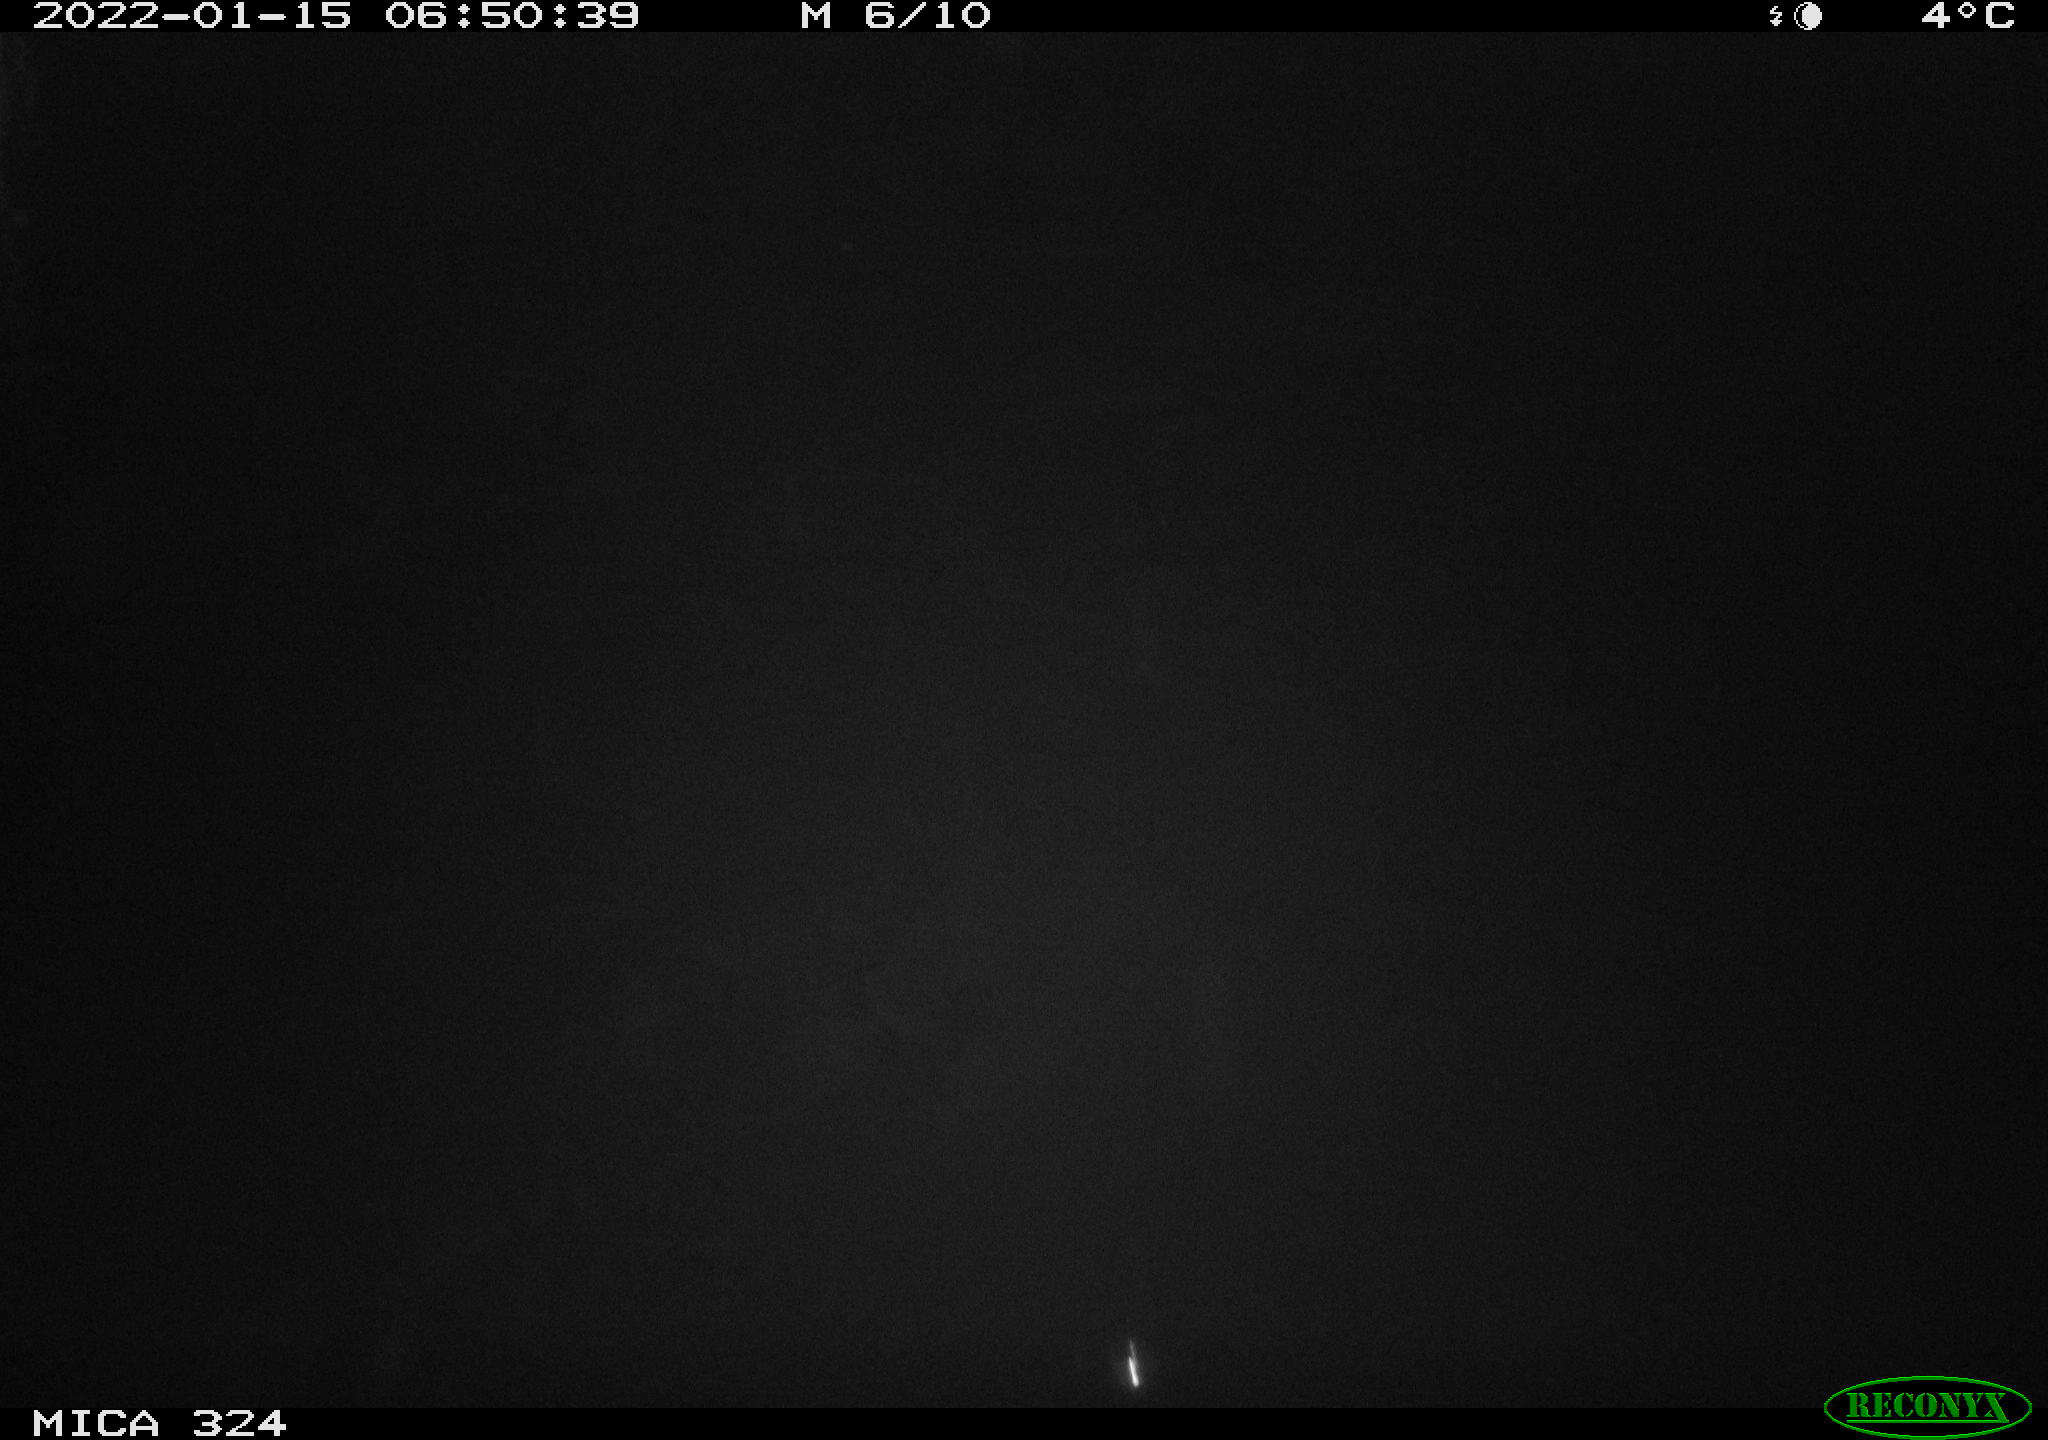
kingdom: Animalia
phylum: Chordata
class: Mammalia
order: Rodentia
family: Cricetidae
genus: Ondatra
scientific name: Ondatra zibethicus
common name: Muskrat
